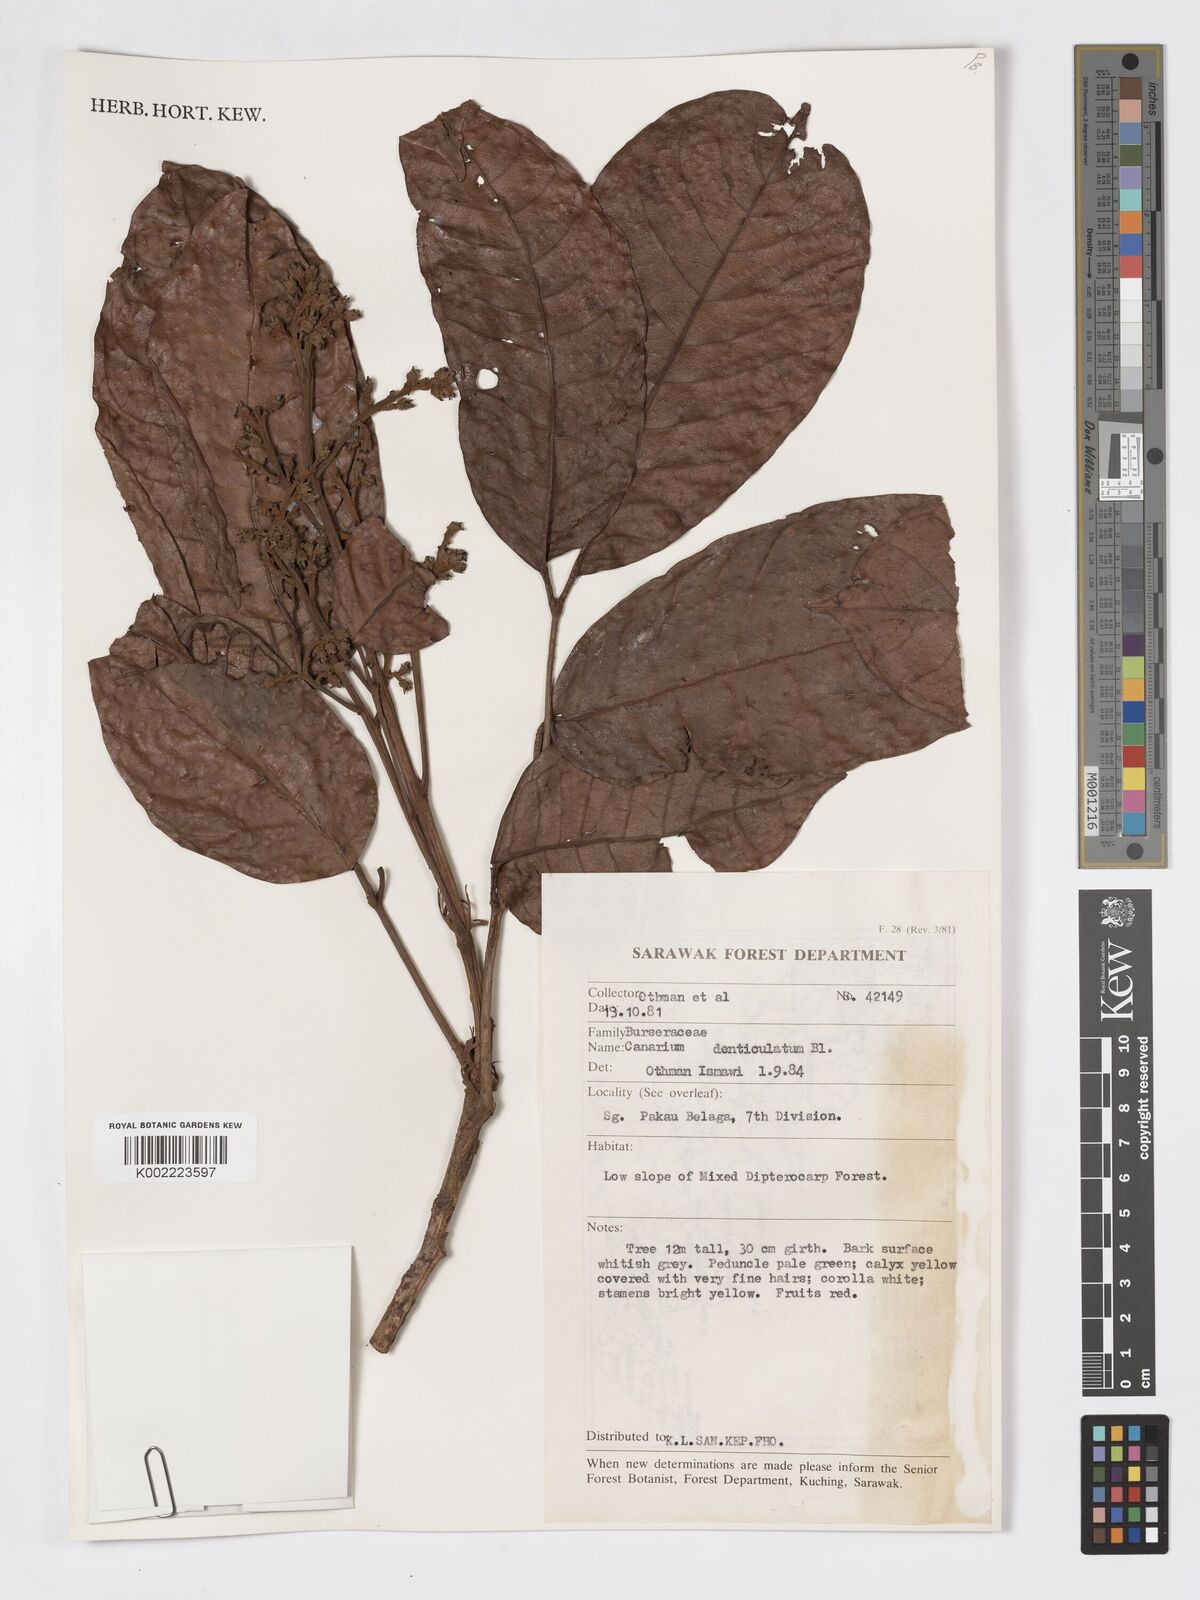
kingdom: Plantae
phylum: Tracheophyta
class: Magnoliopsida
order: Sapindales
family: Burseraceae
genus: Canarium
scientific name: Canarium denticulatum
